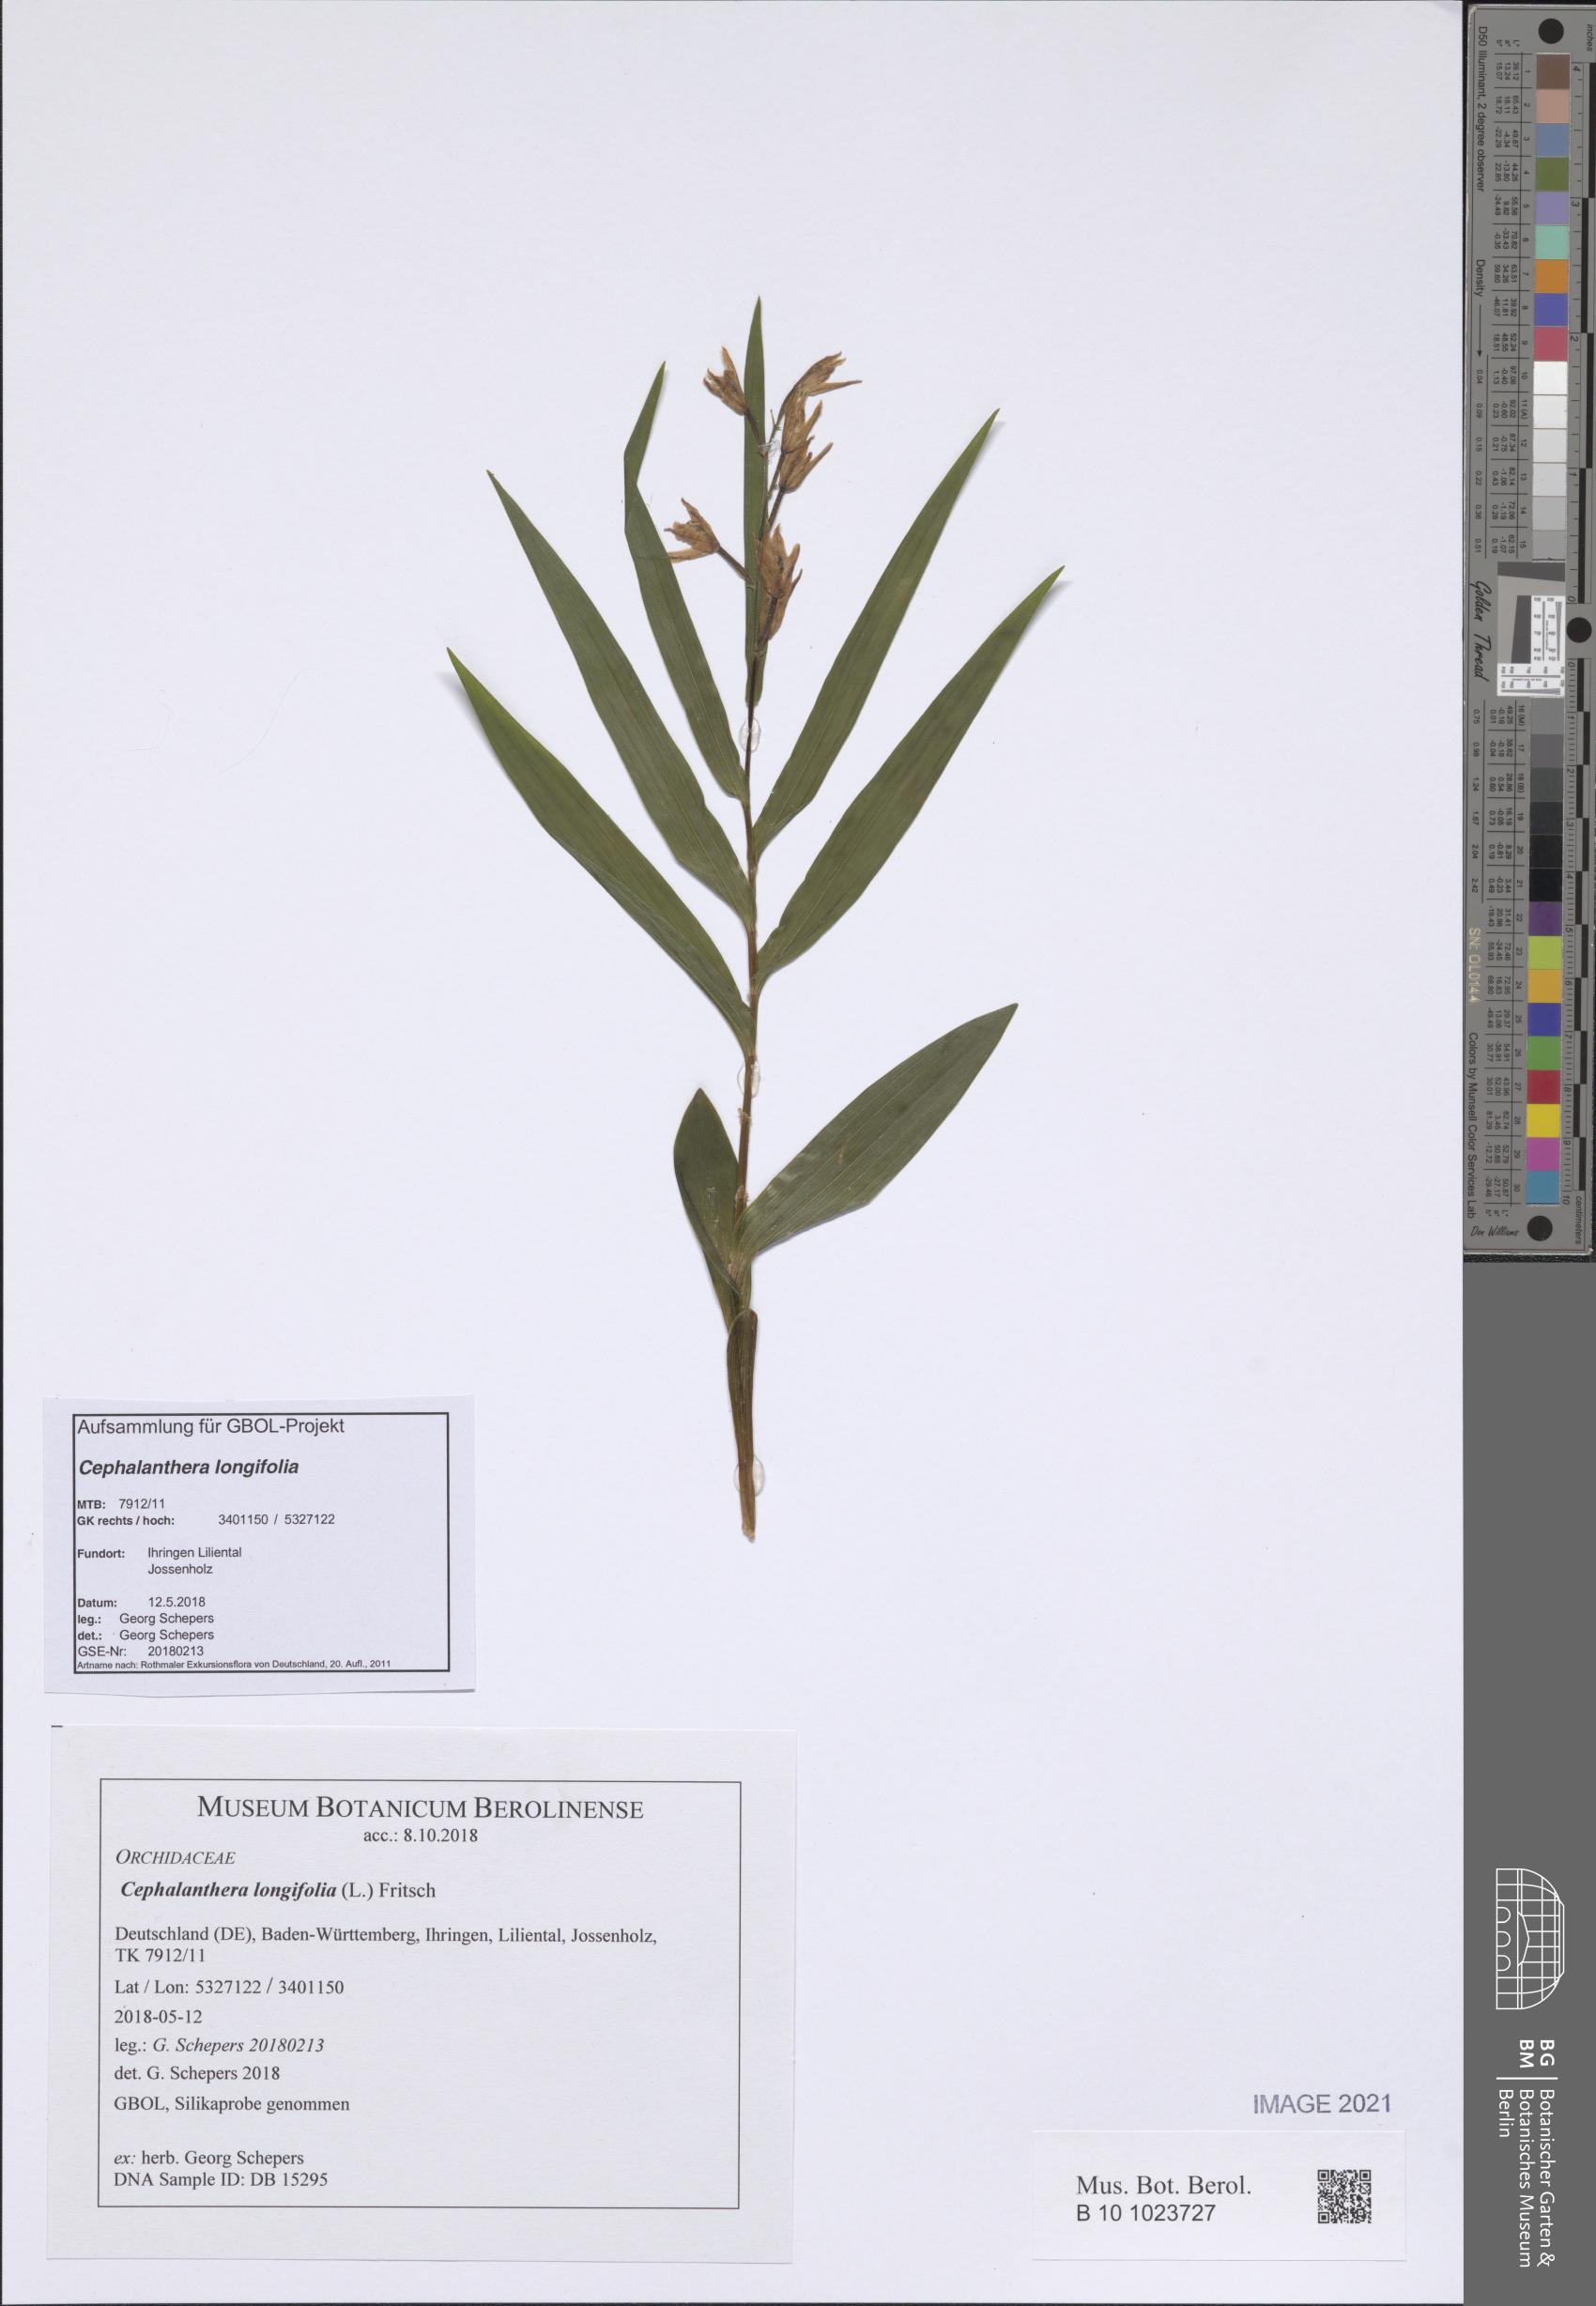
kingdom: Plantae
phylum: Tracheophyta
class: Liliopsida
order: Asparagales
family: Orchidaceae
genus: Cephalanthera
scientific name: Cephalanthera longifolia
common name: Narrow-leaved helleborine
